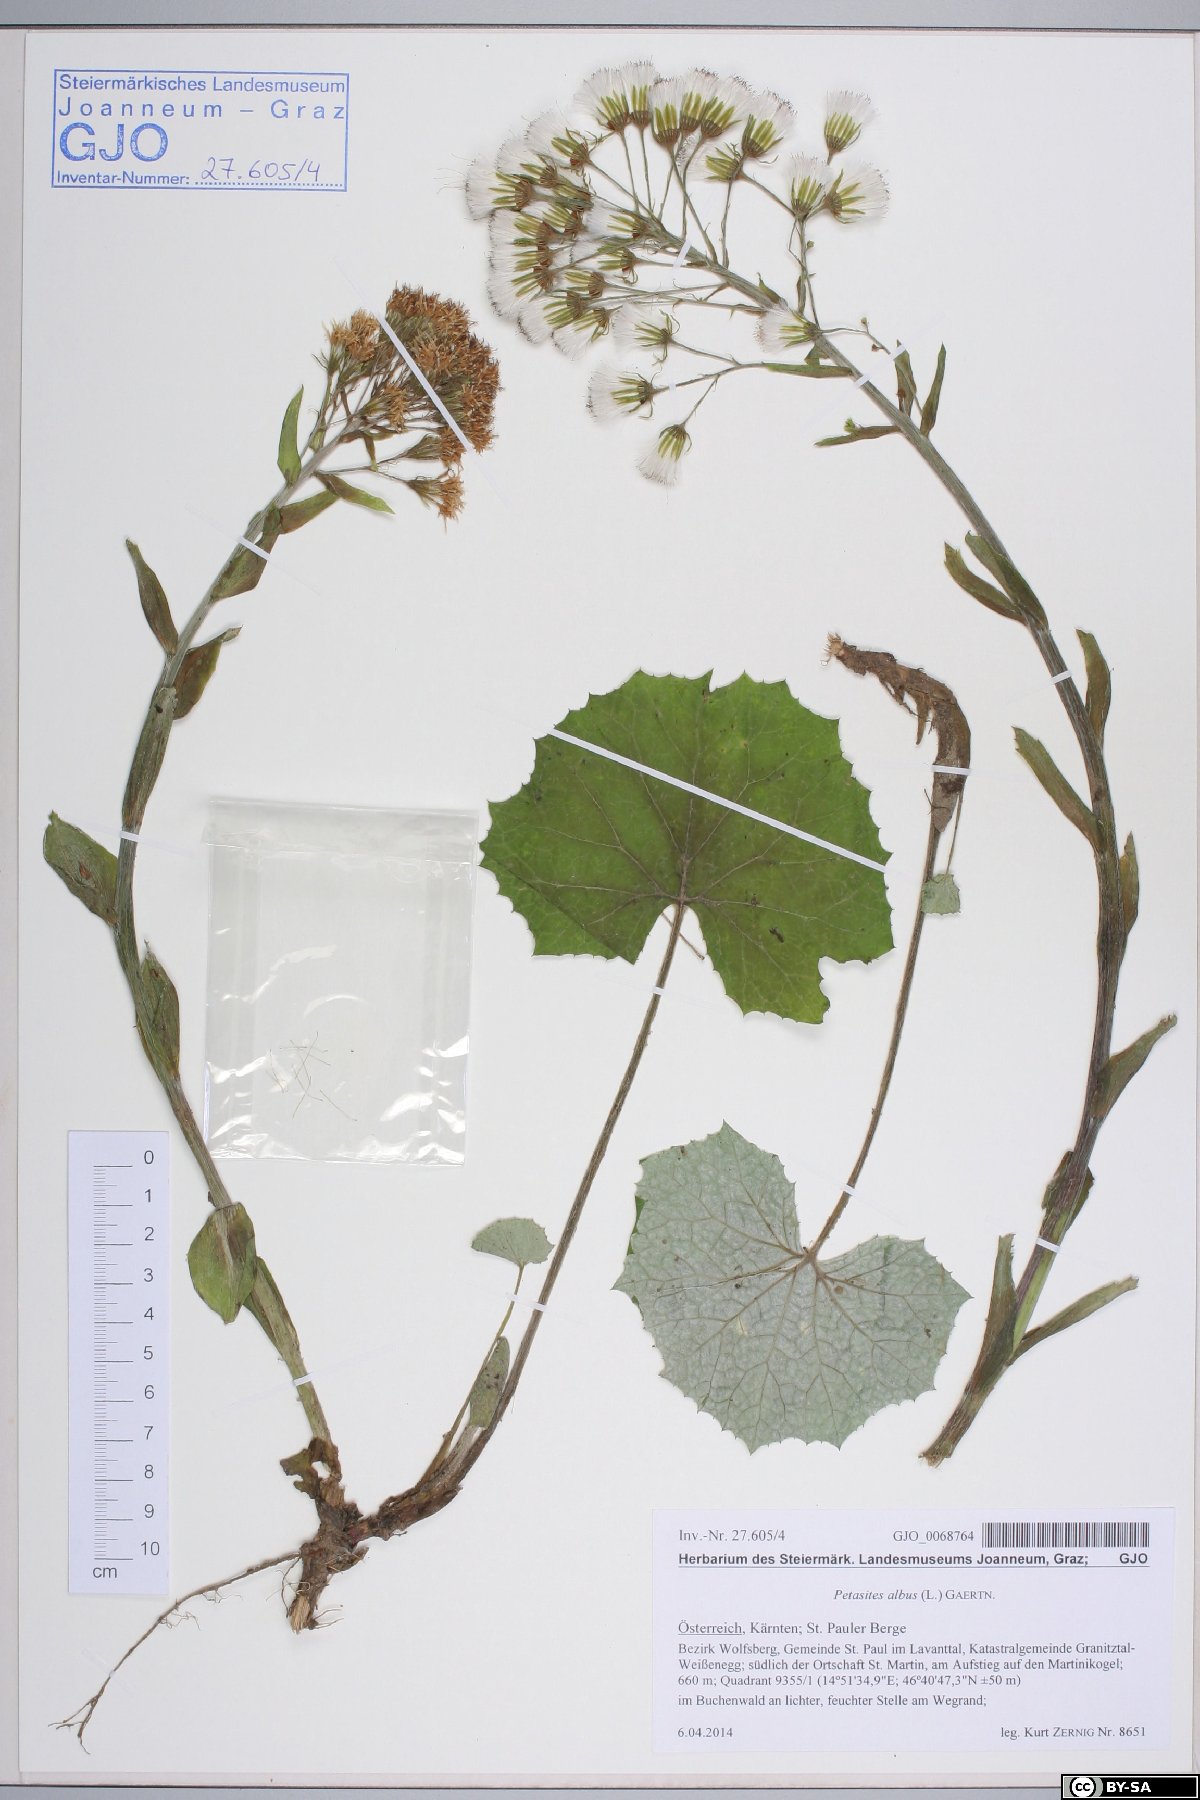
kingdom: Plantae
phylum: Tracheophyta
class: Magnoliopsida
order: Asterales
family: Asteraceae
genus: Petasites
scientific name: Petasites albus
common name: White butterbur
